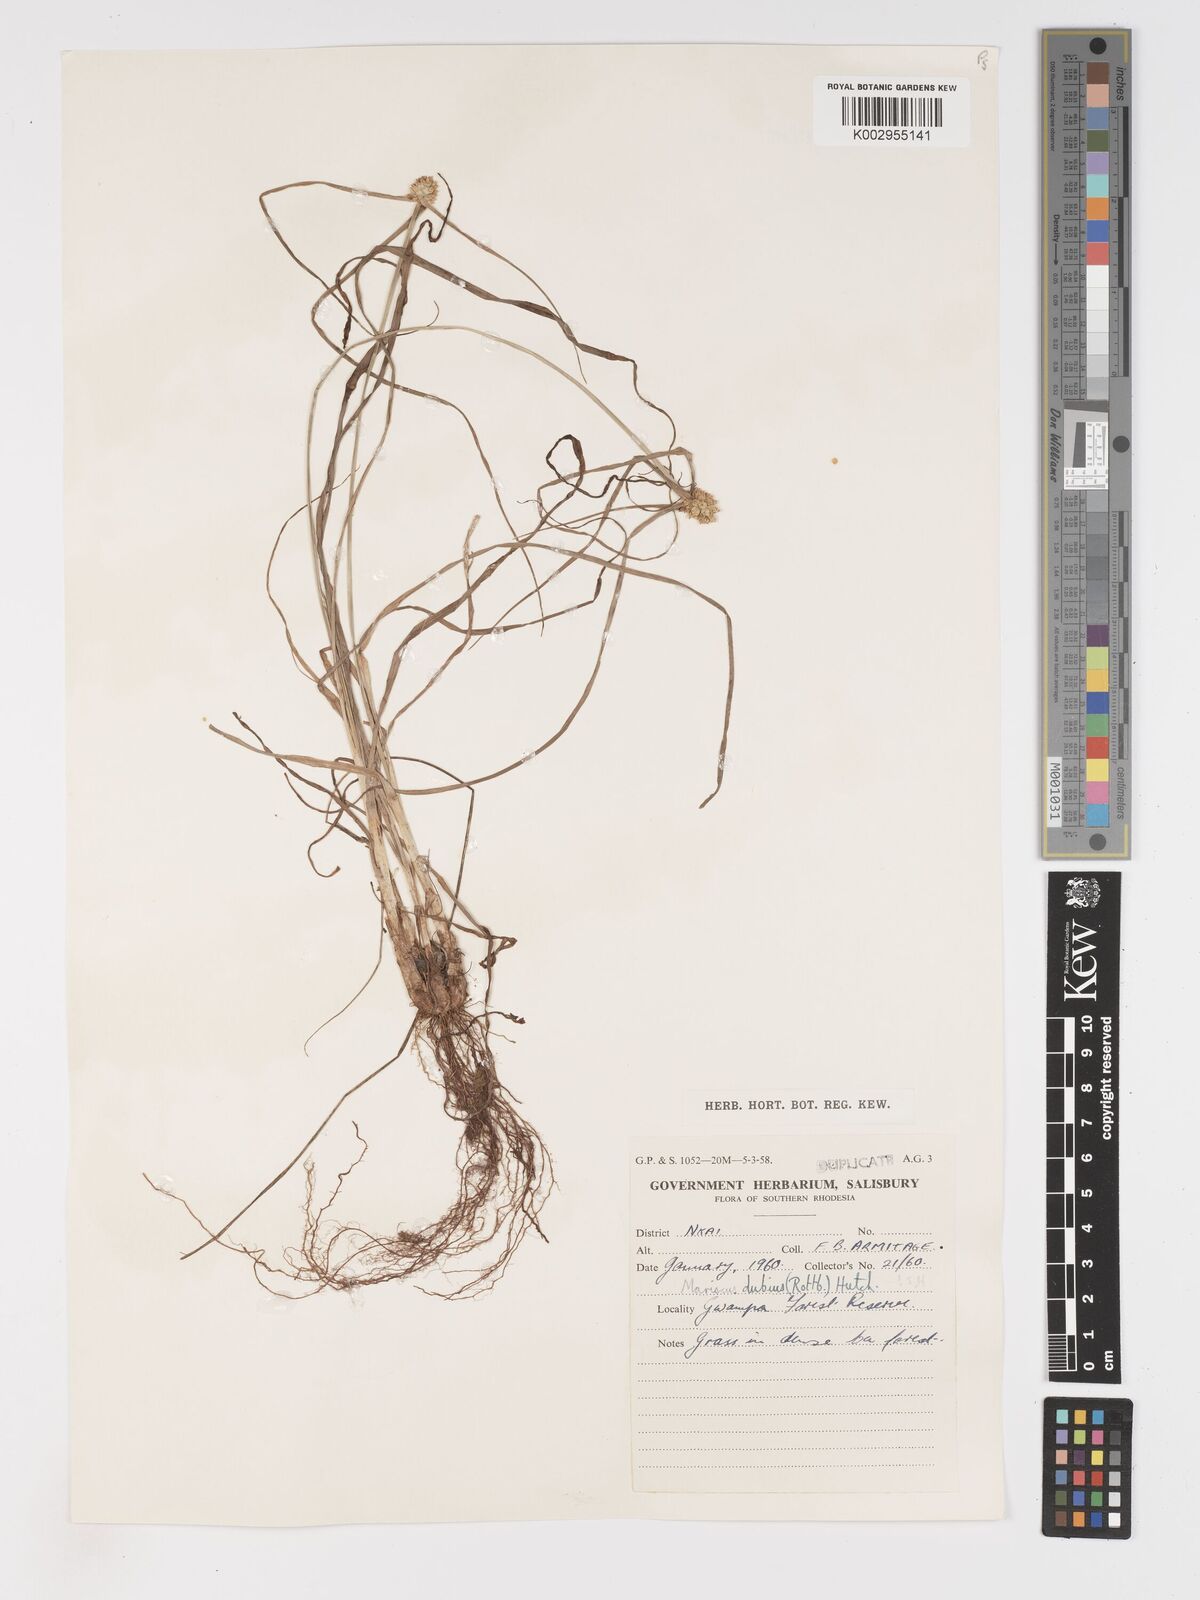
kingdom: Plantae
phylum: Tracheophyta
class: Liliopsida
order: Poales
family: Cyperaceae
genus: Cyperus
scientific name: Cyperus dubius
